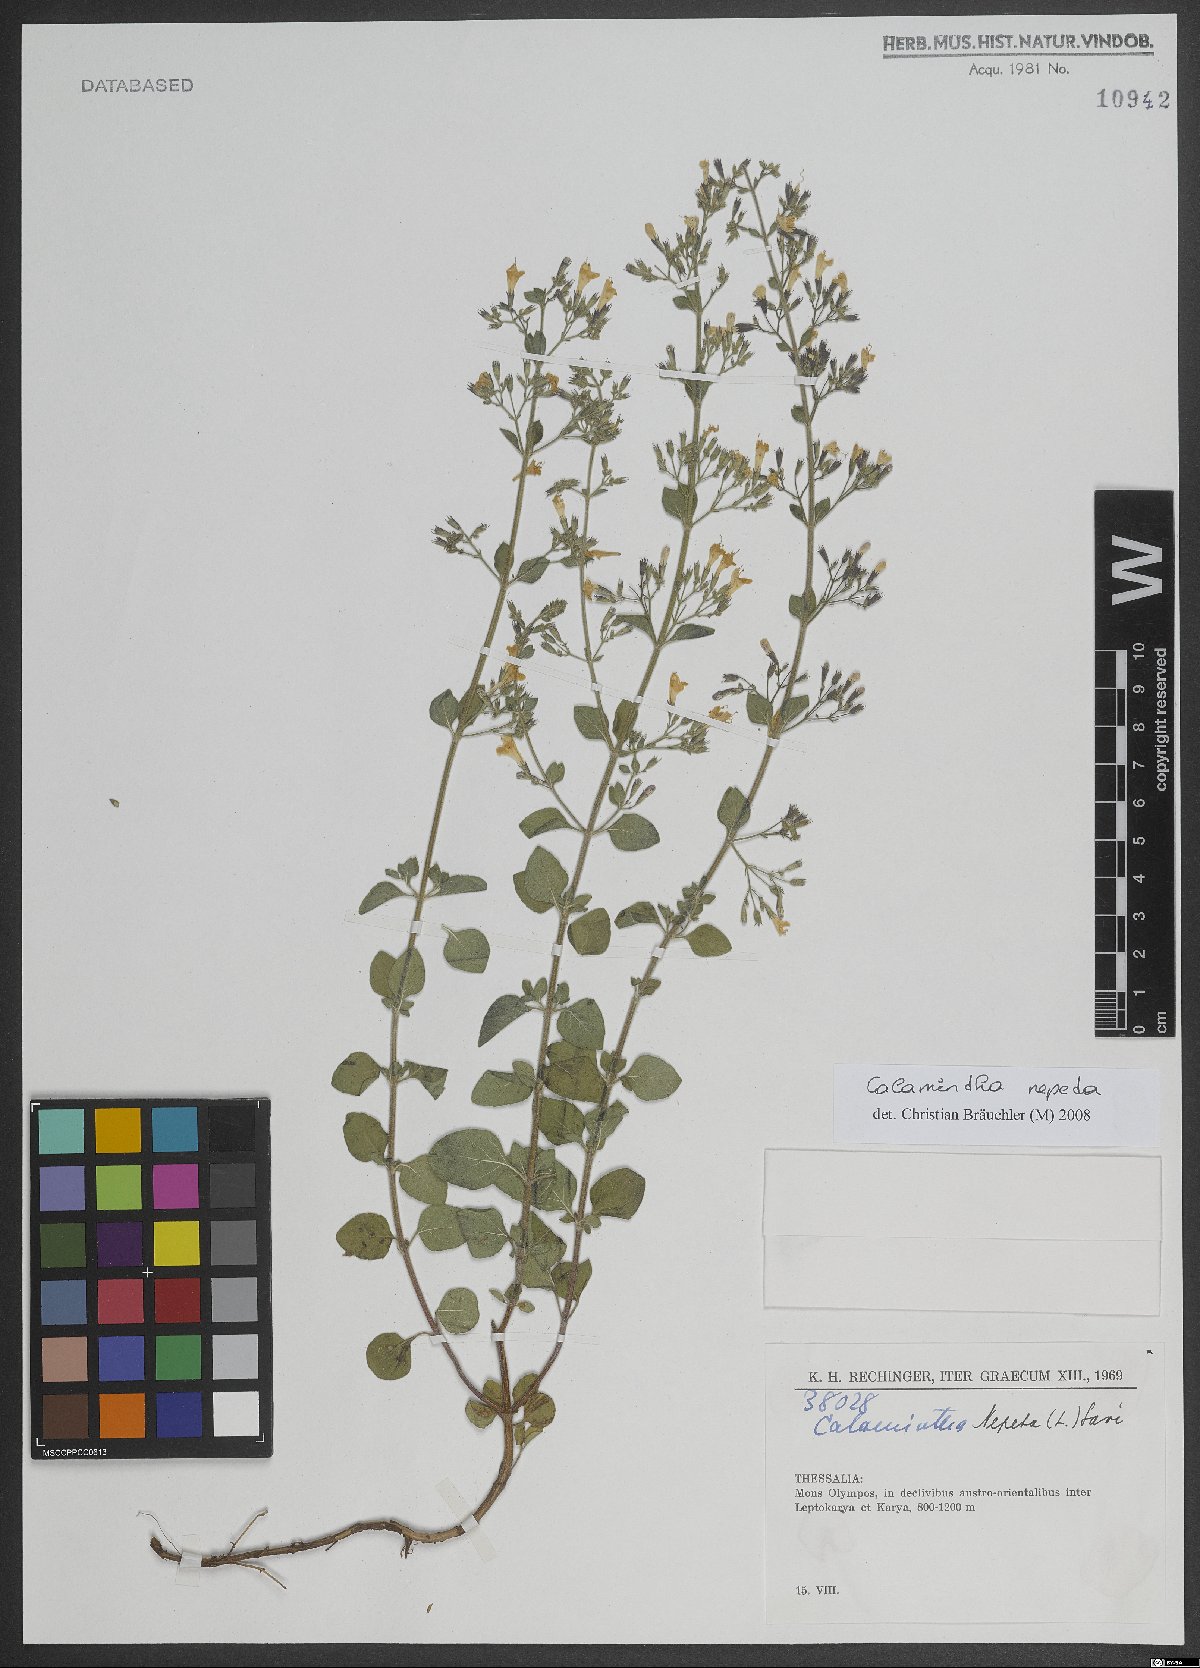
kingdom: Plantae
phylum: Tracheophyta
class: Magnoliopsida
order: Lamiales
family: Lamiaceae
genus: Clinopodium
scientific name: Clinopodium nepeta
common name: Lesser calamint
